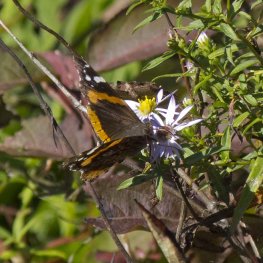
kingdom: Animalia
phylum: Arthropoda
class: Insecta
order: Lepidoptera
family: Nymphalidae
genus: Vanessa
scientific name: Vanessa atalanta
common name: Red Admiral
